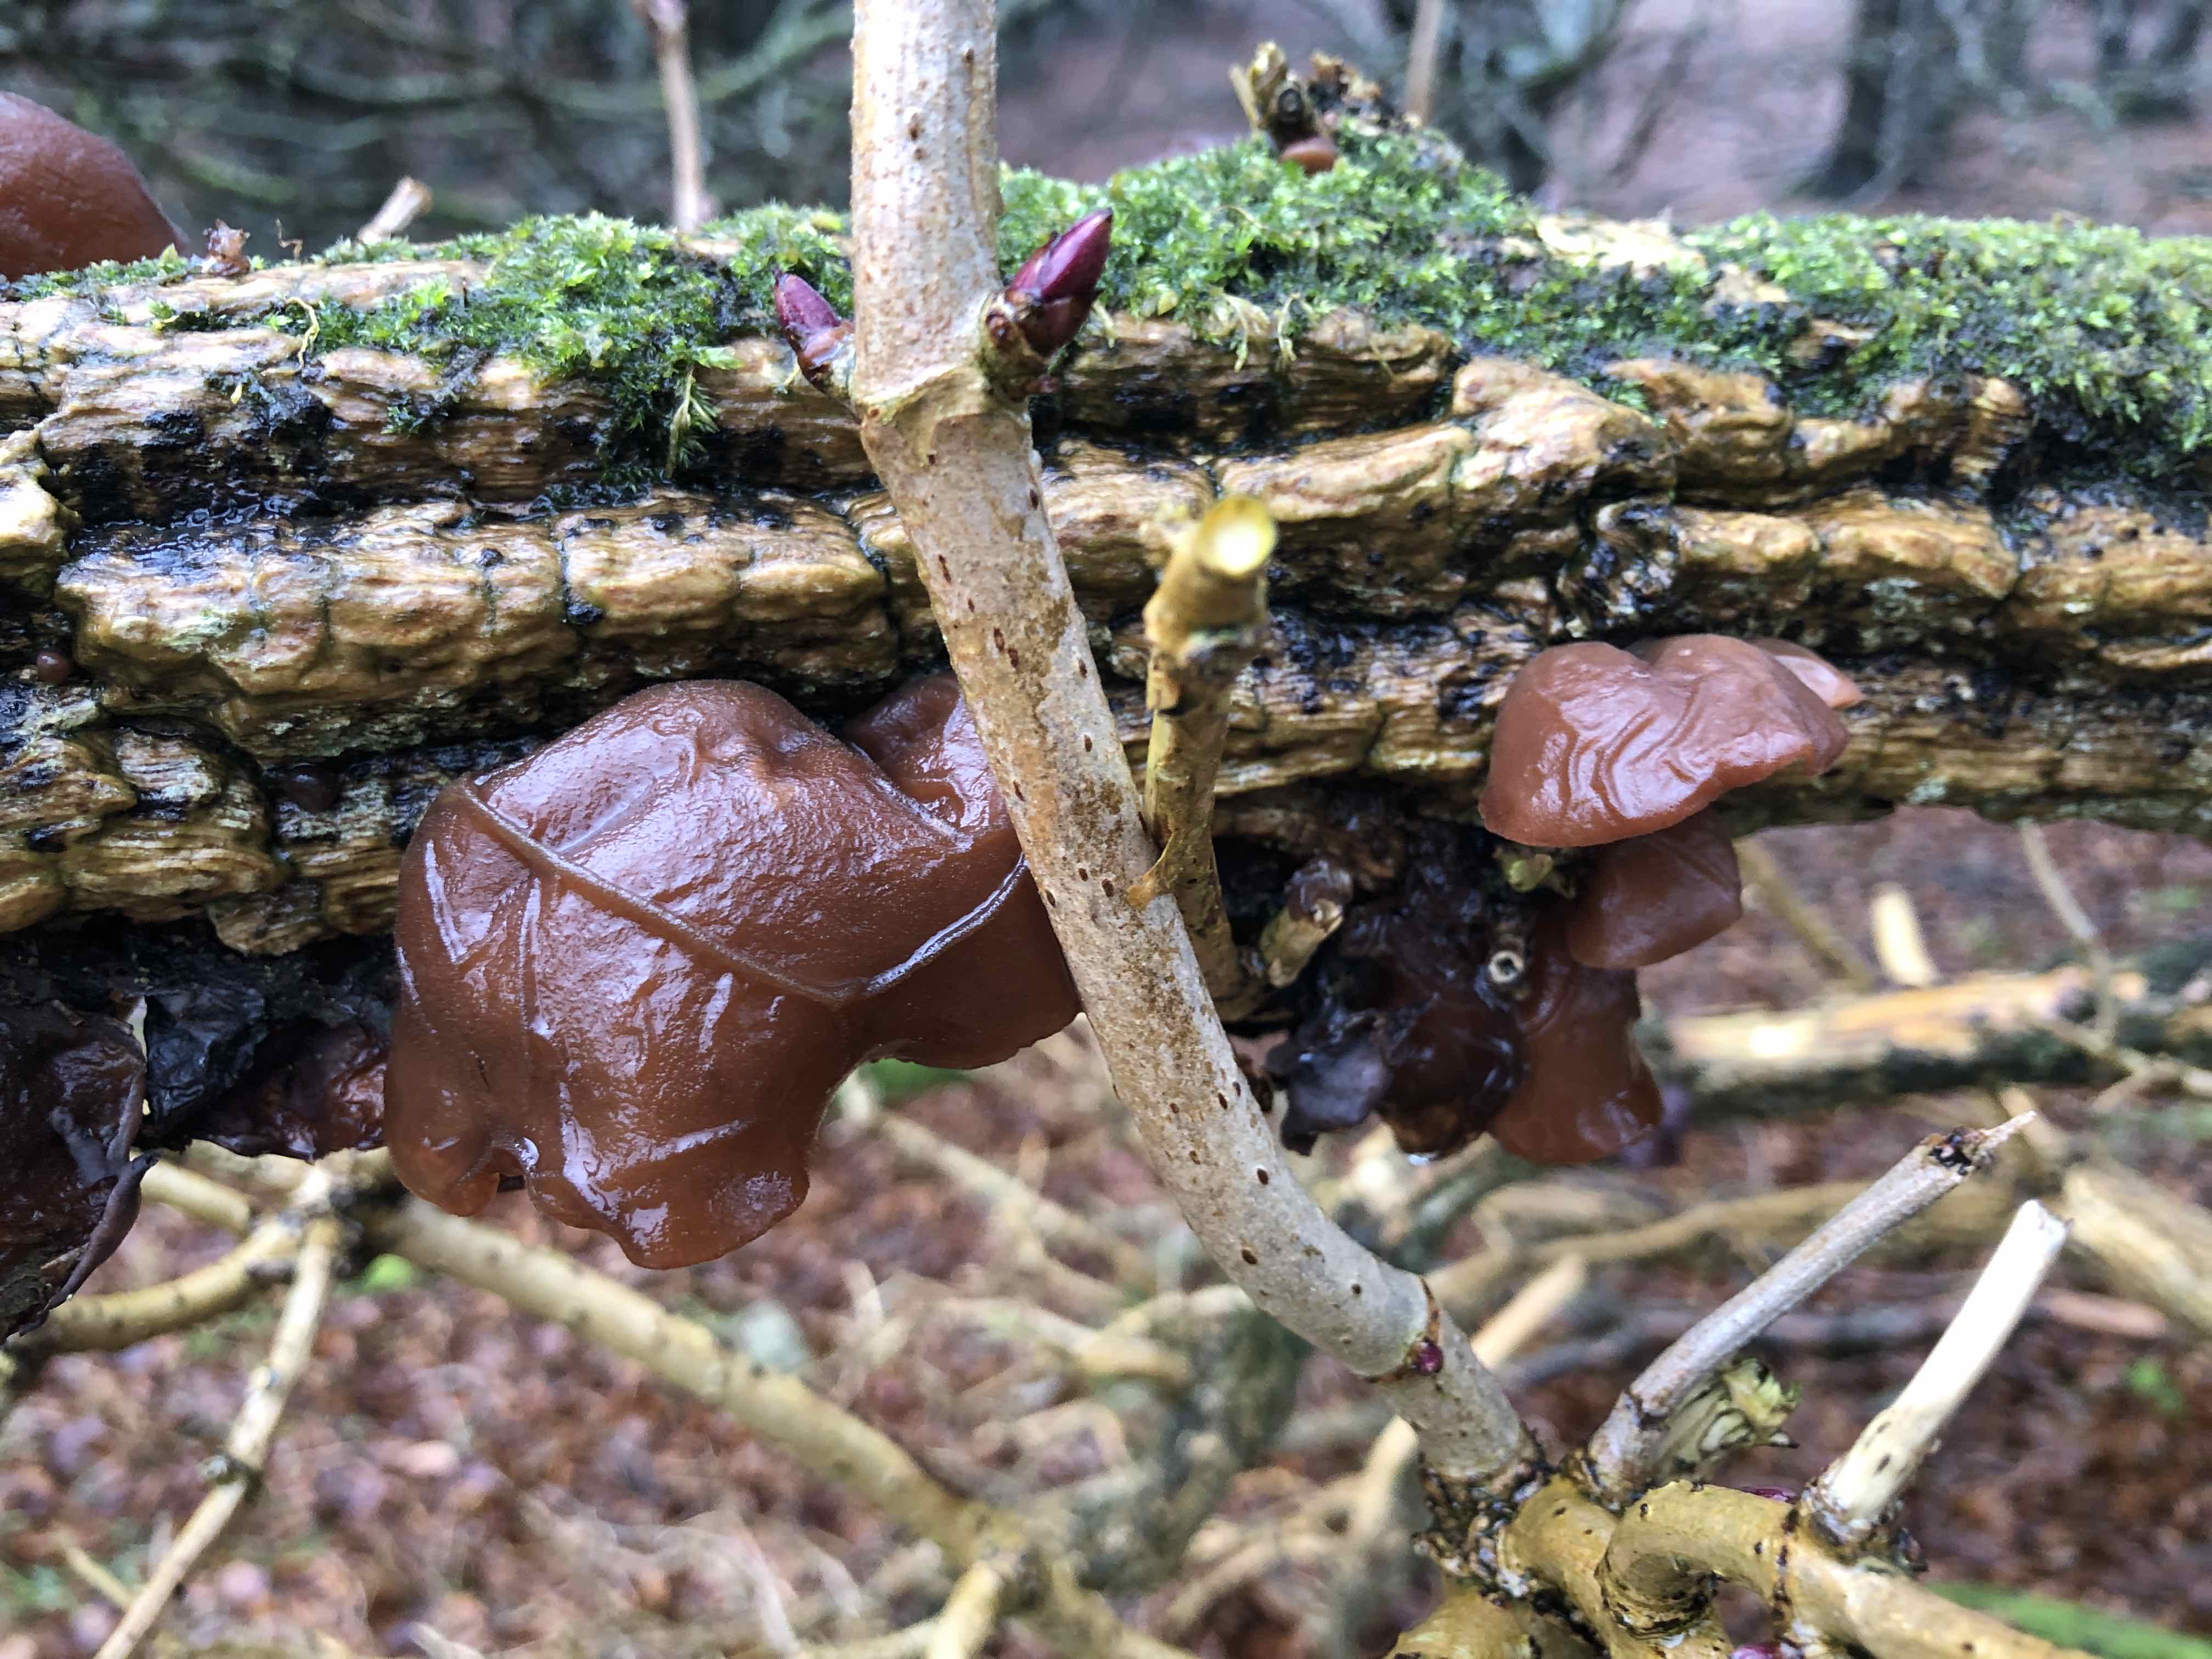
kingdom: Fungi
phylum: Basidiomycota
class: Agaricomycetes
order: Auriculariales
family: Auriculariaceae
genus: Auricularia
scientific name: Auricularia auricula-judae
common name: almindelig judasøre
